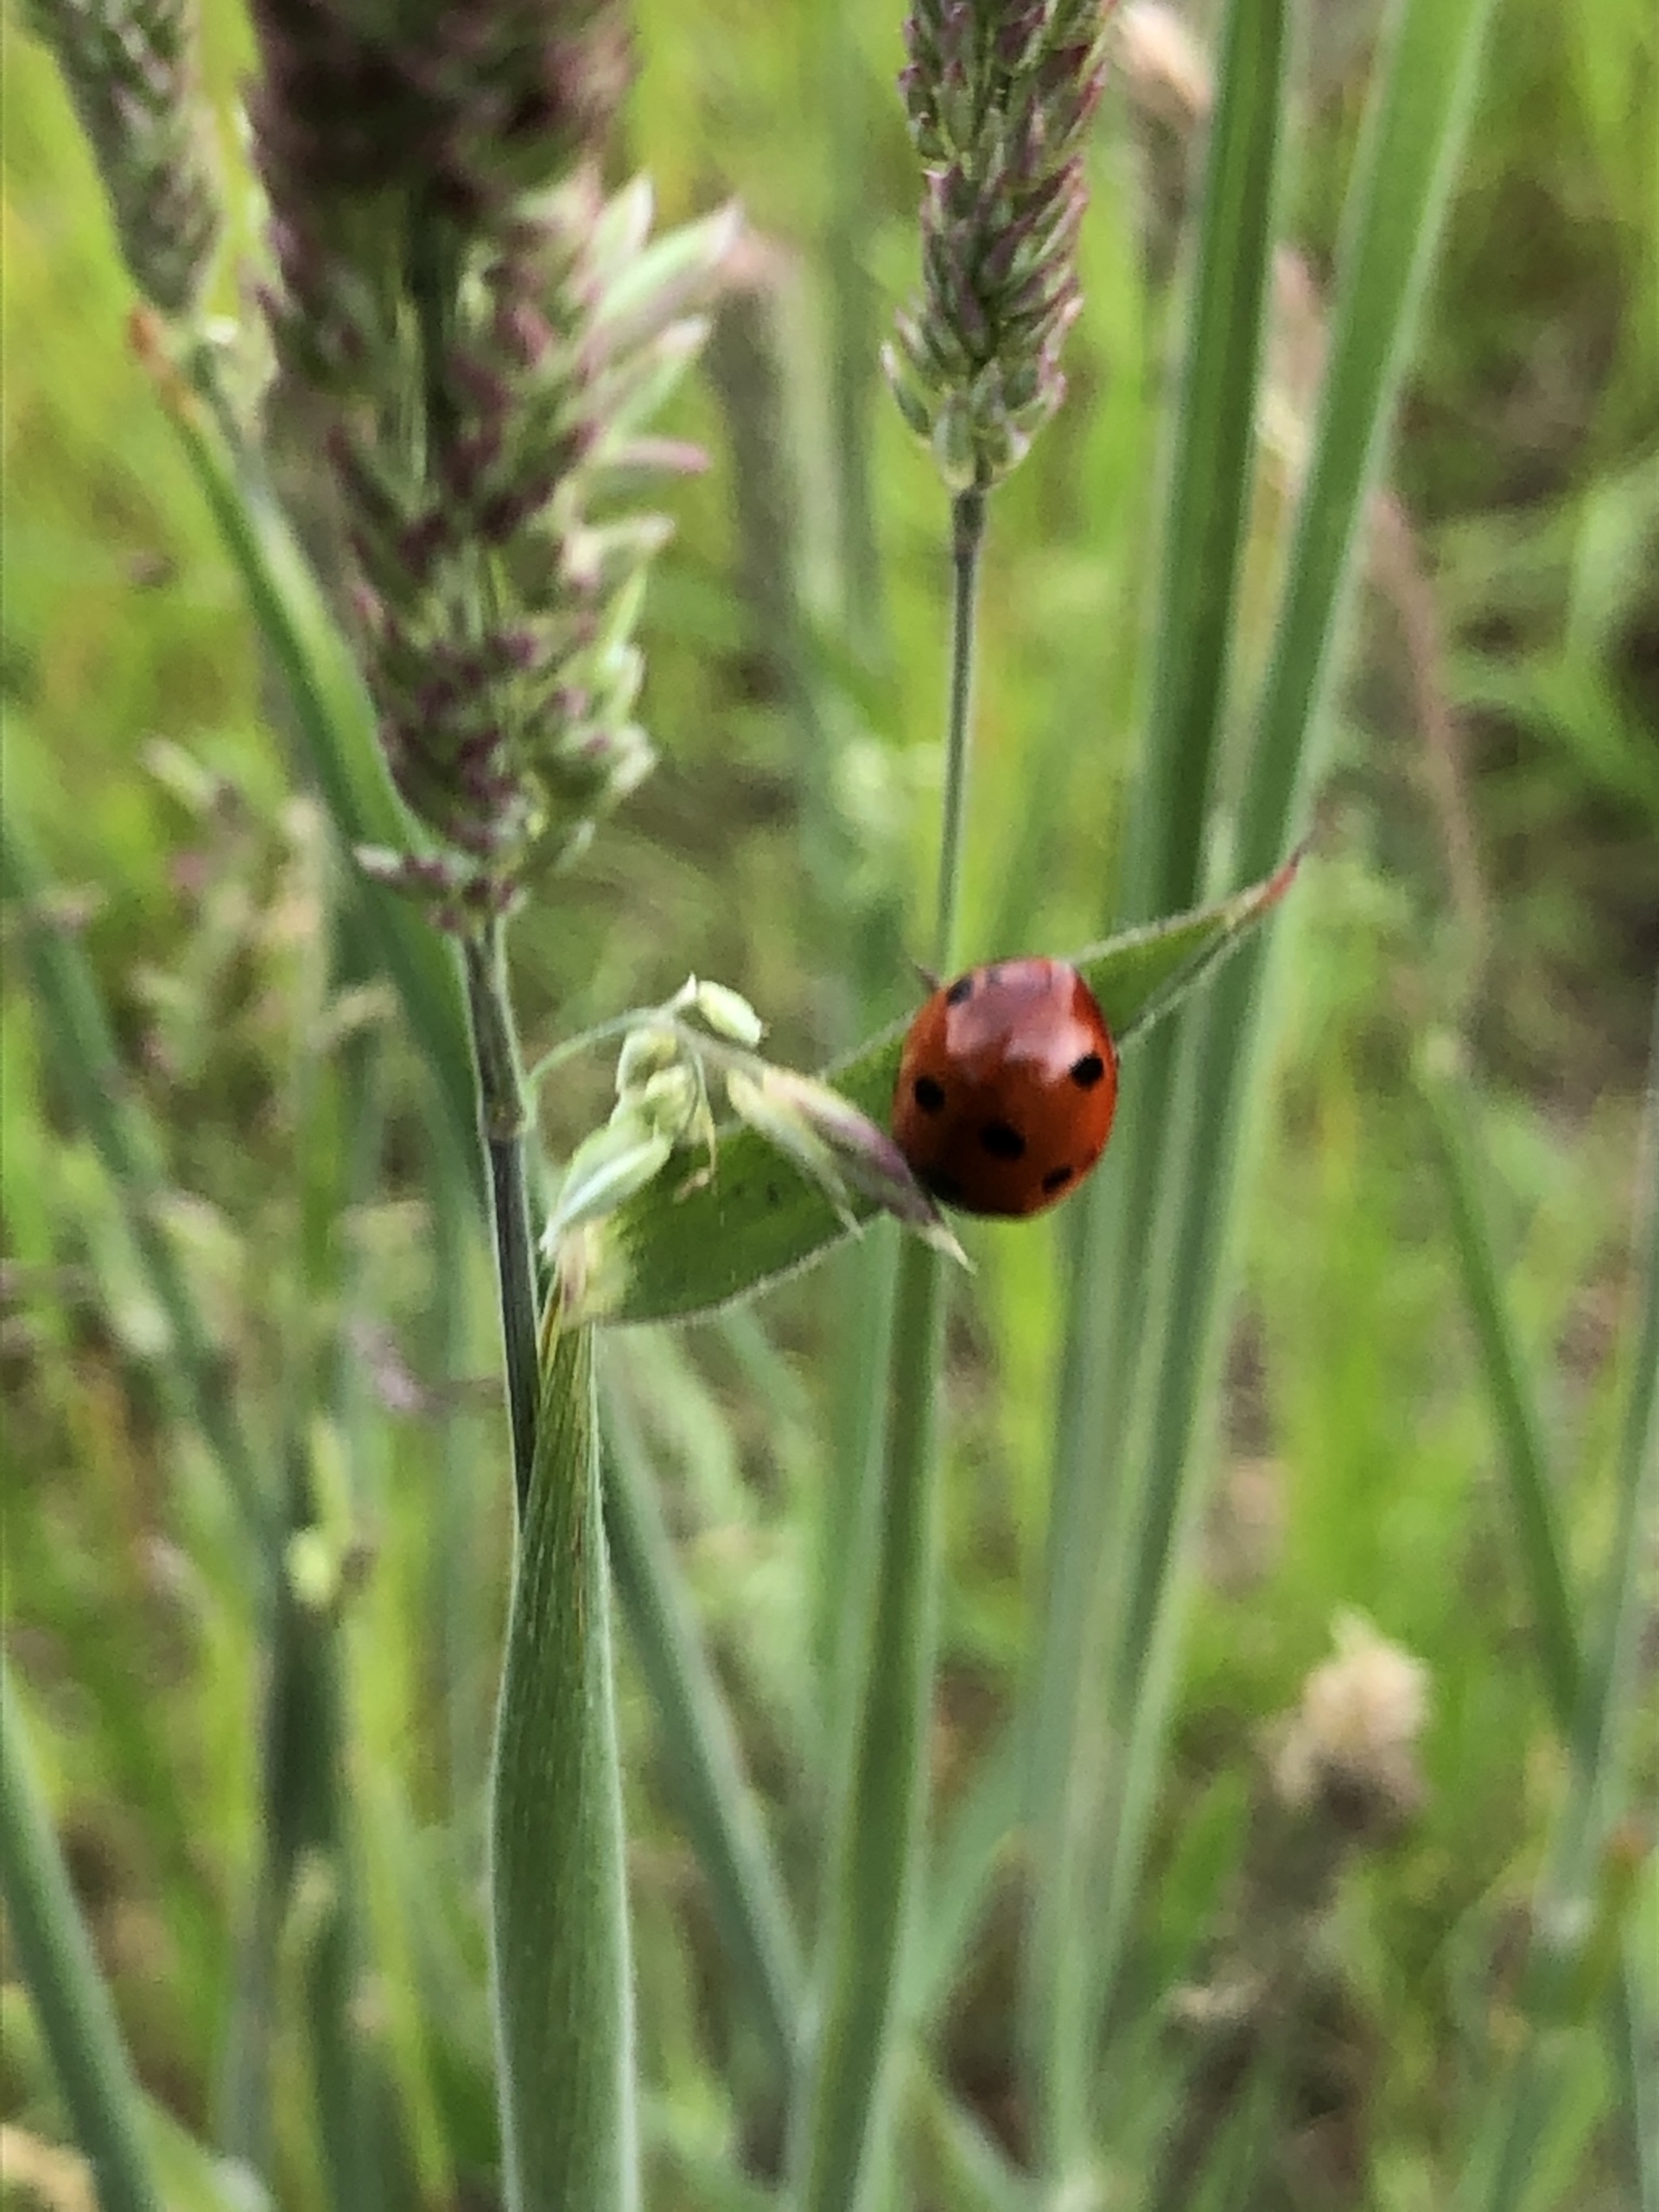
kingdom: Animalia
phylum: Arthropoda
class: Insecta
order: Coleoptera
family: Coccinellidae
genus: Coccinella
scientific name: Coccinella septempunctata
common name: Syvplettet mariehøne
